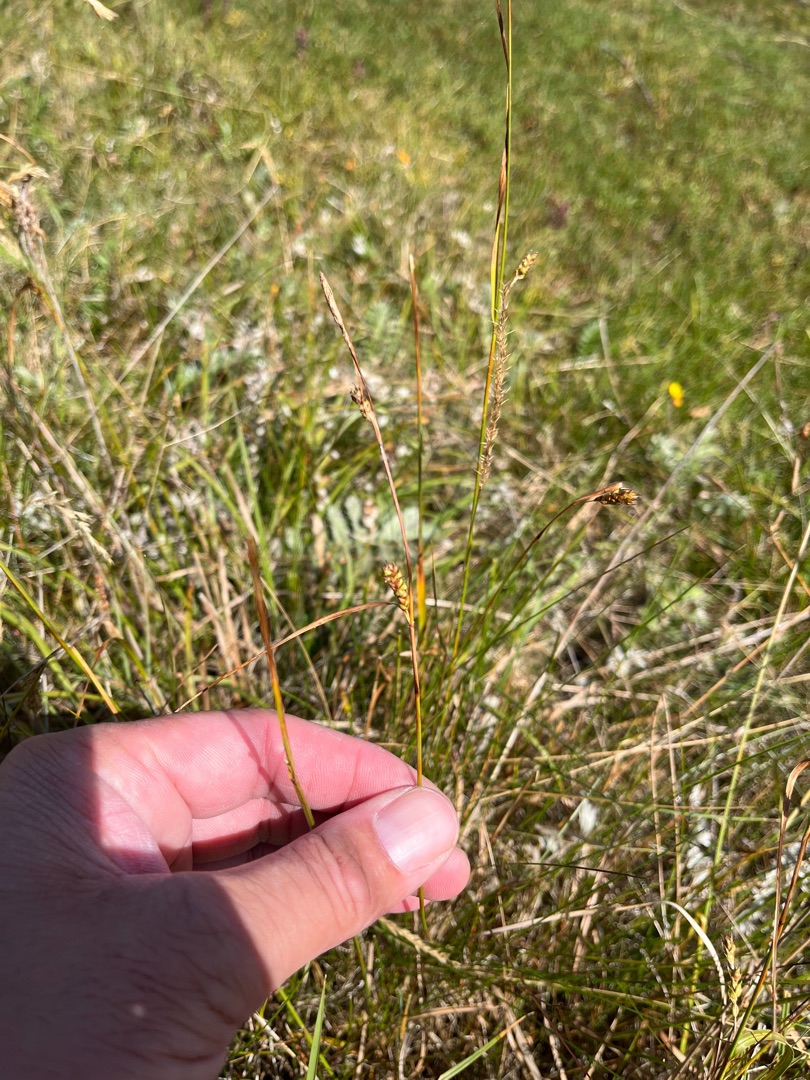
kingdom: Plantae
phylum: Tracheophyta
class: Liliopsida
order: Poales
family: Cyperaceae
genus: Carex
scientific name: Carex distans
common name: Fjernakset star
